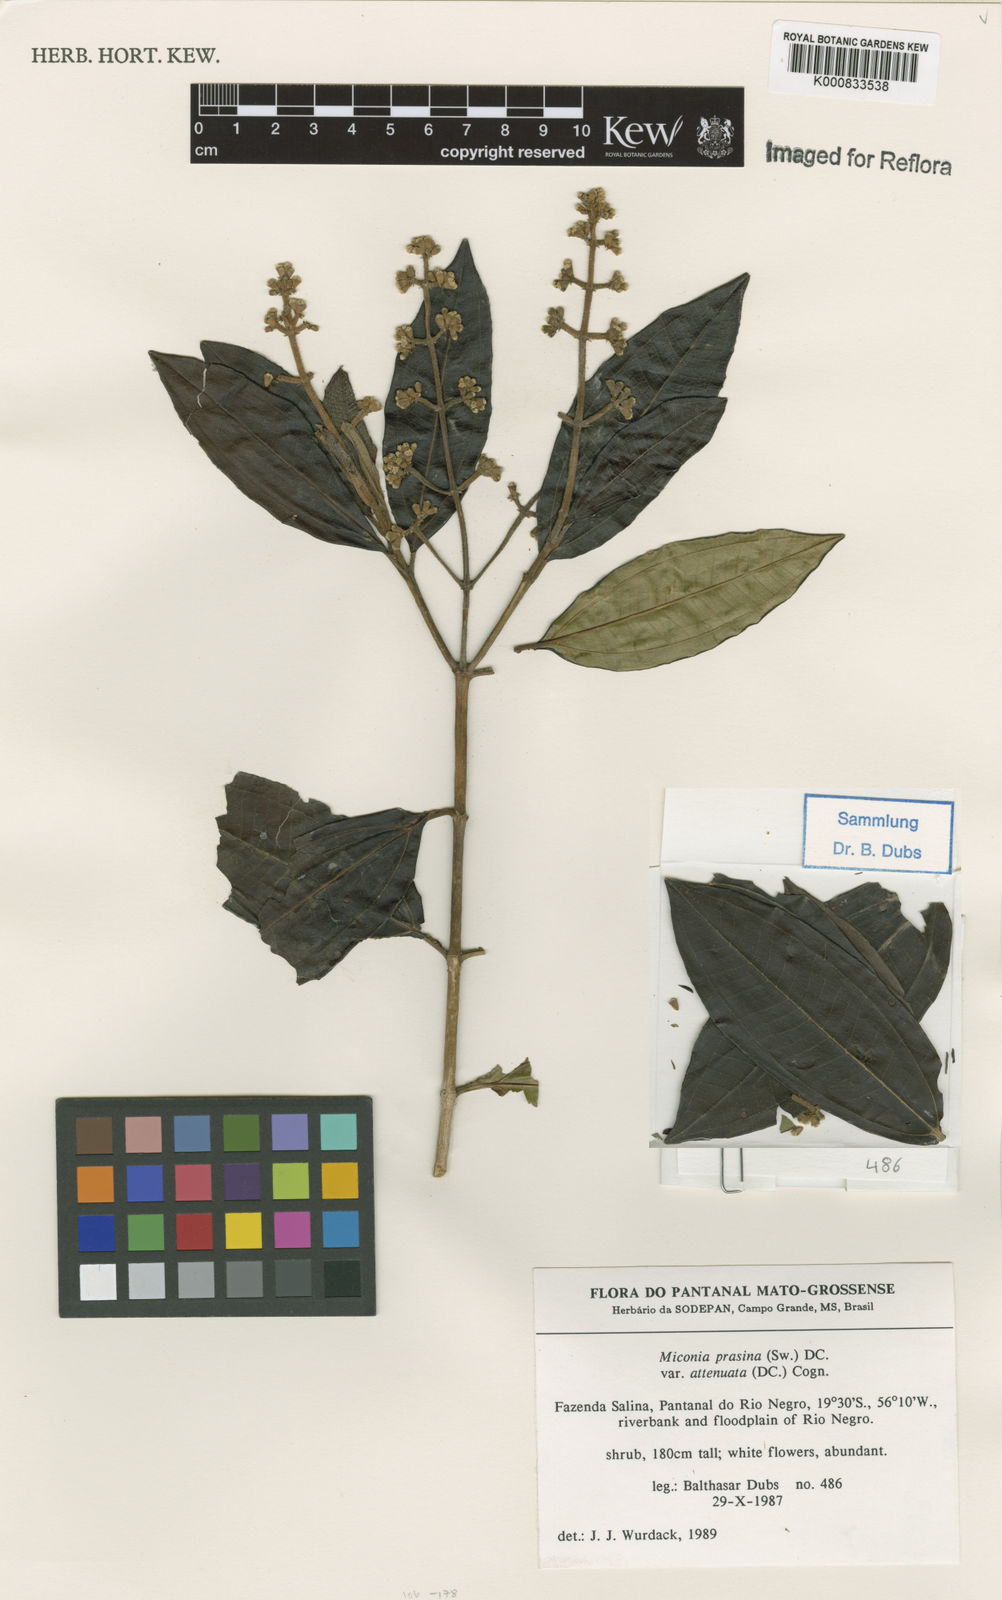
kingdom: Plantae
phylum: Tracheophyta
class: Magnoliopsida
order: Myrtales
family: Melastomataceae
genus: Miconia
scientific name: Miconia prasina
